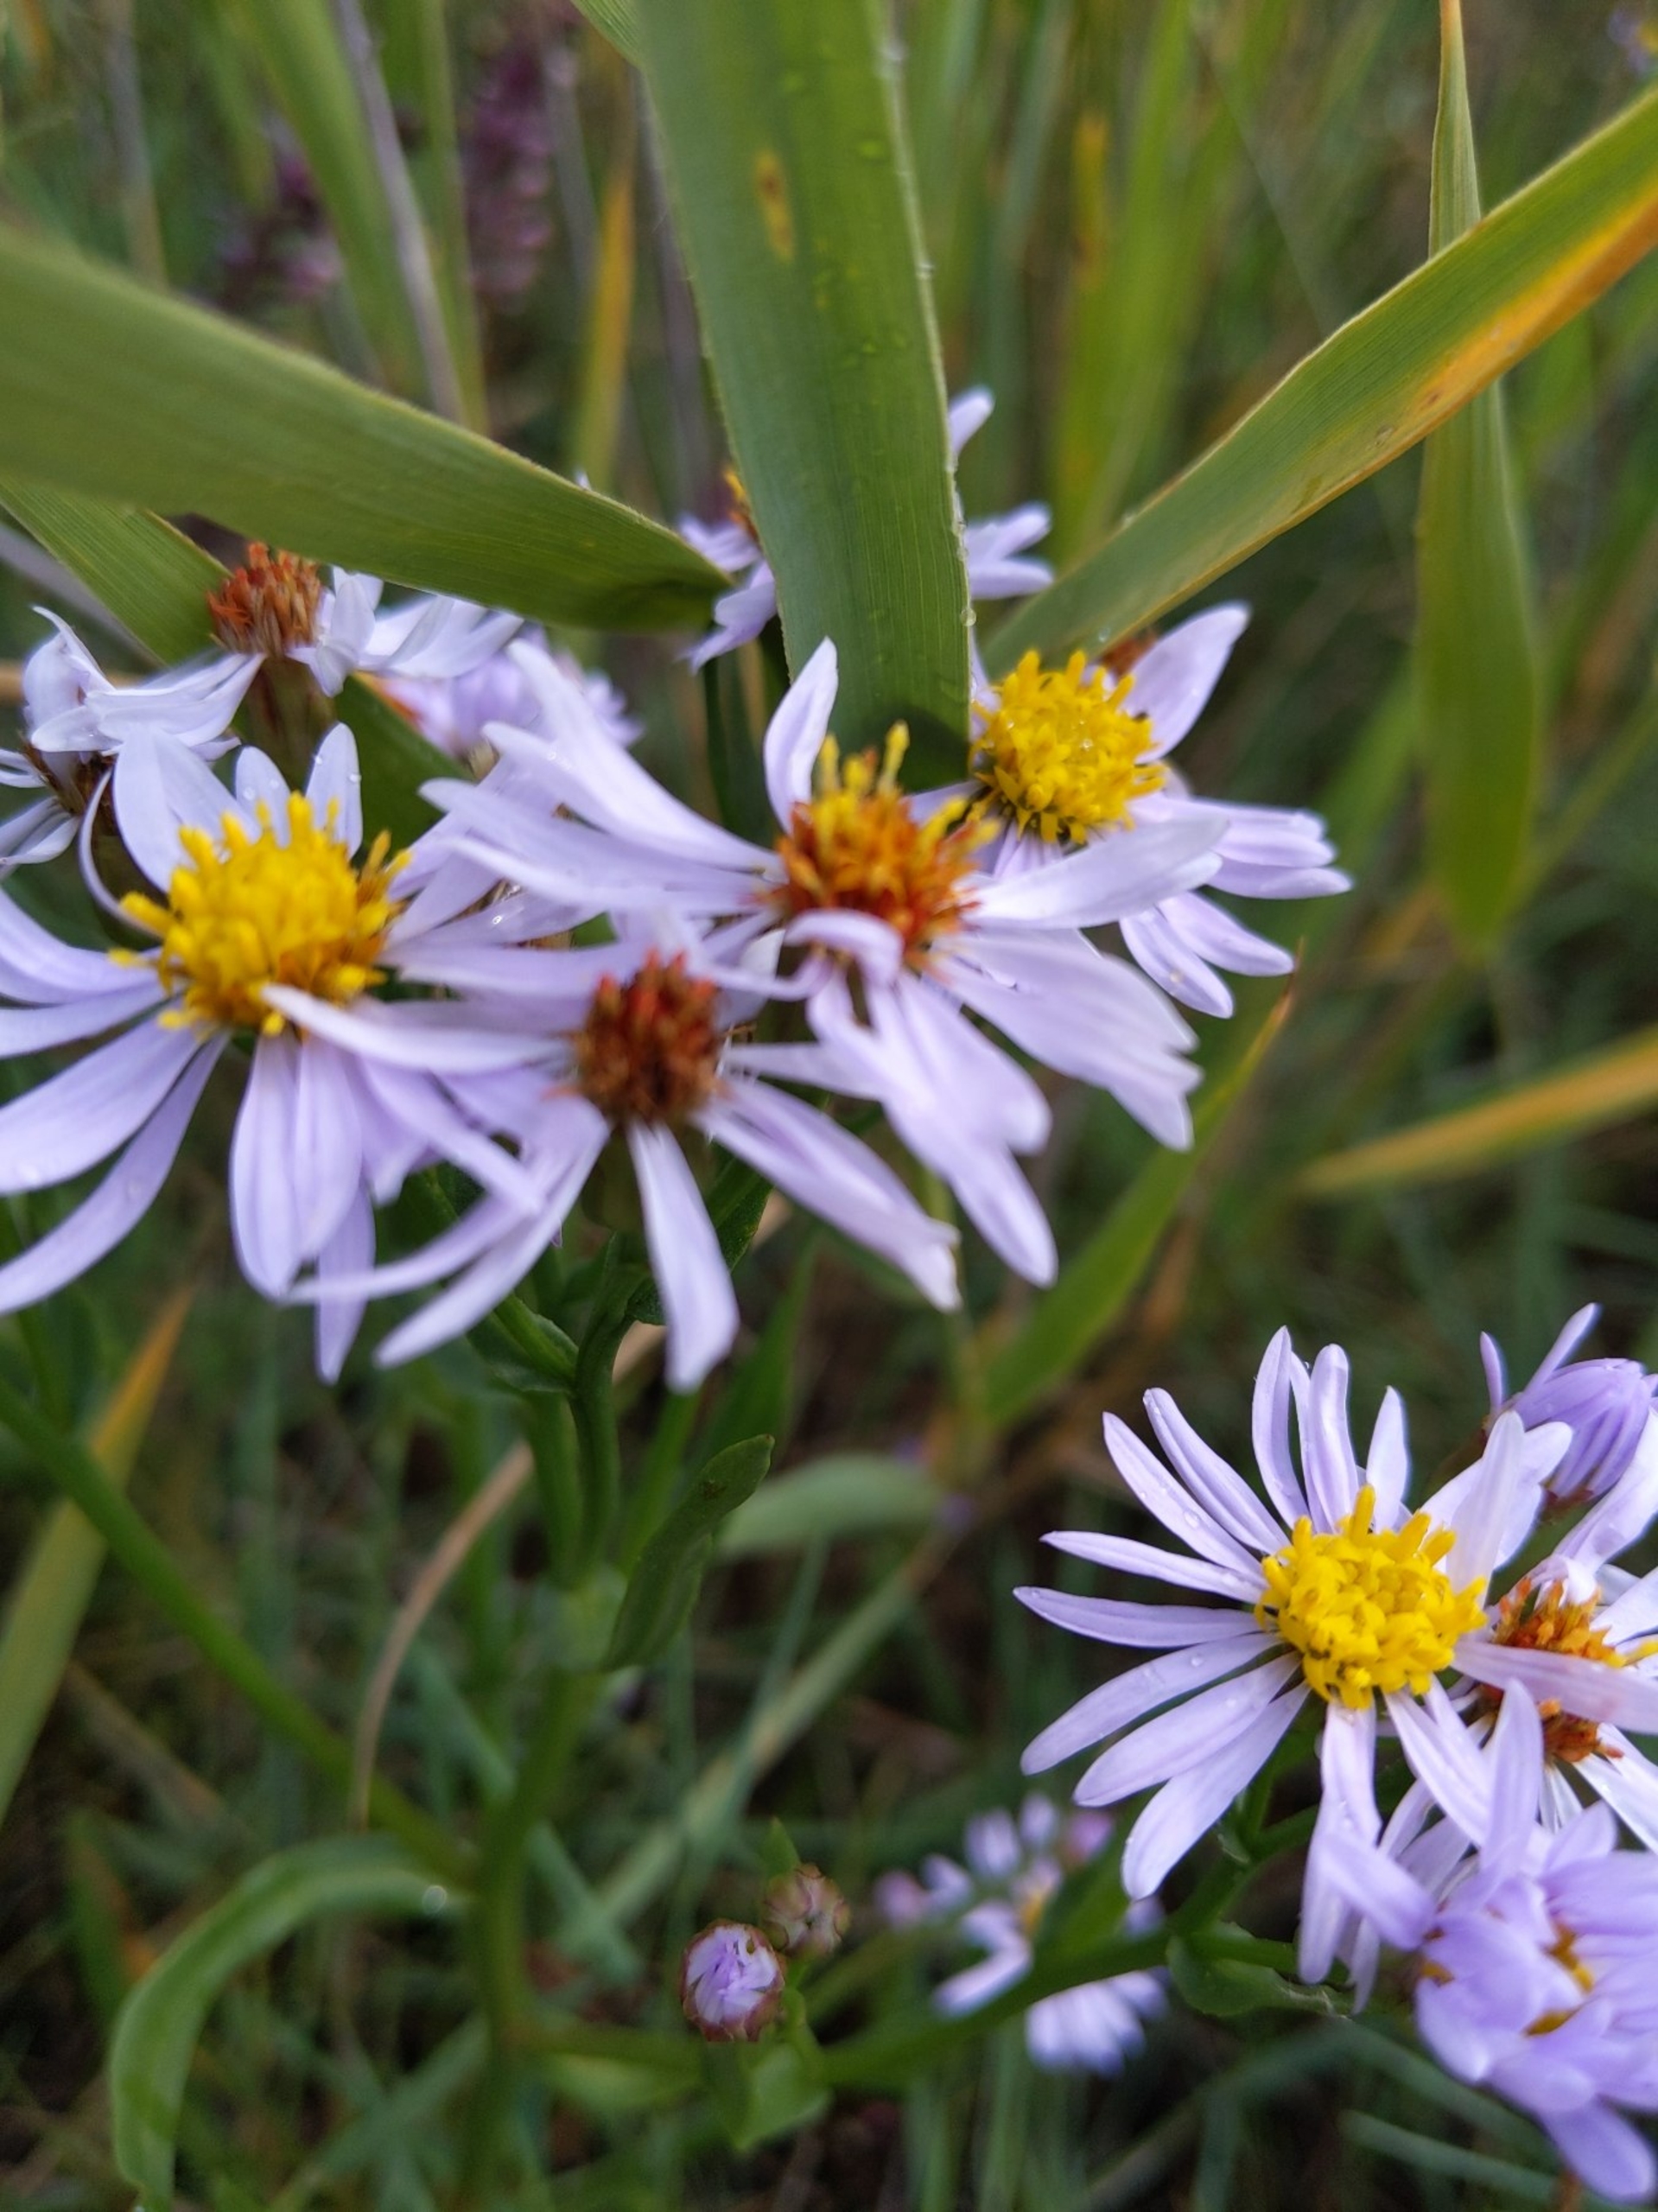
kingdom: Plantae
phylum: Tracheophyta
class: Magnoliopsida
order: Asterales
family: Asteraceae
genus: Tripolium
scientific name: Tripolium pannonicum
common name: Strandasters
